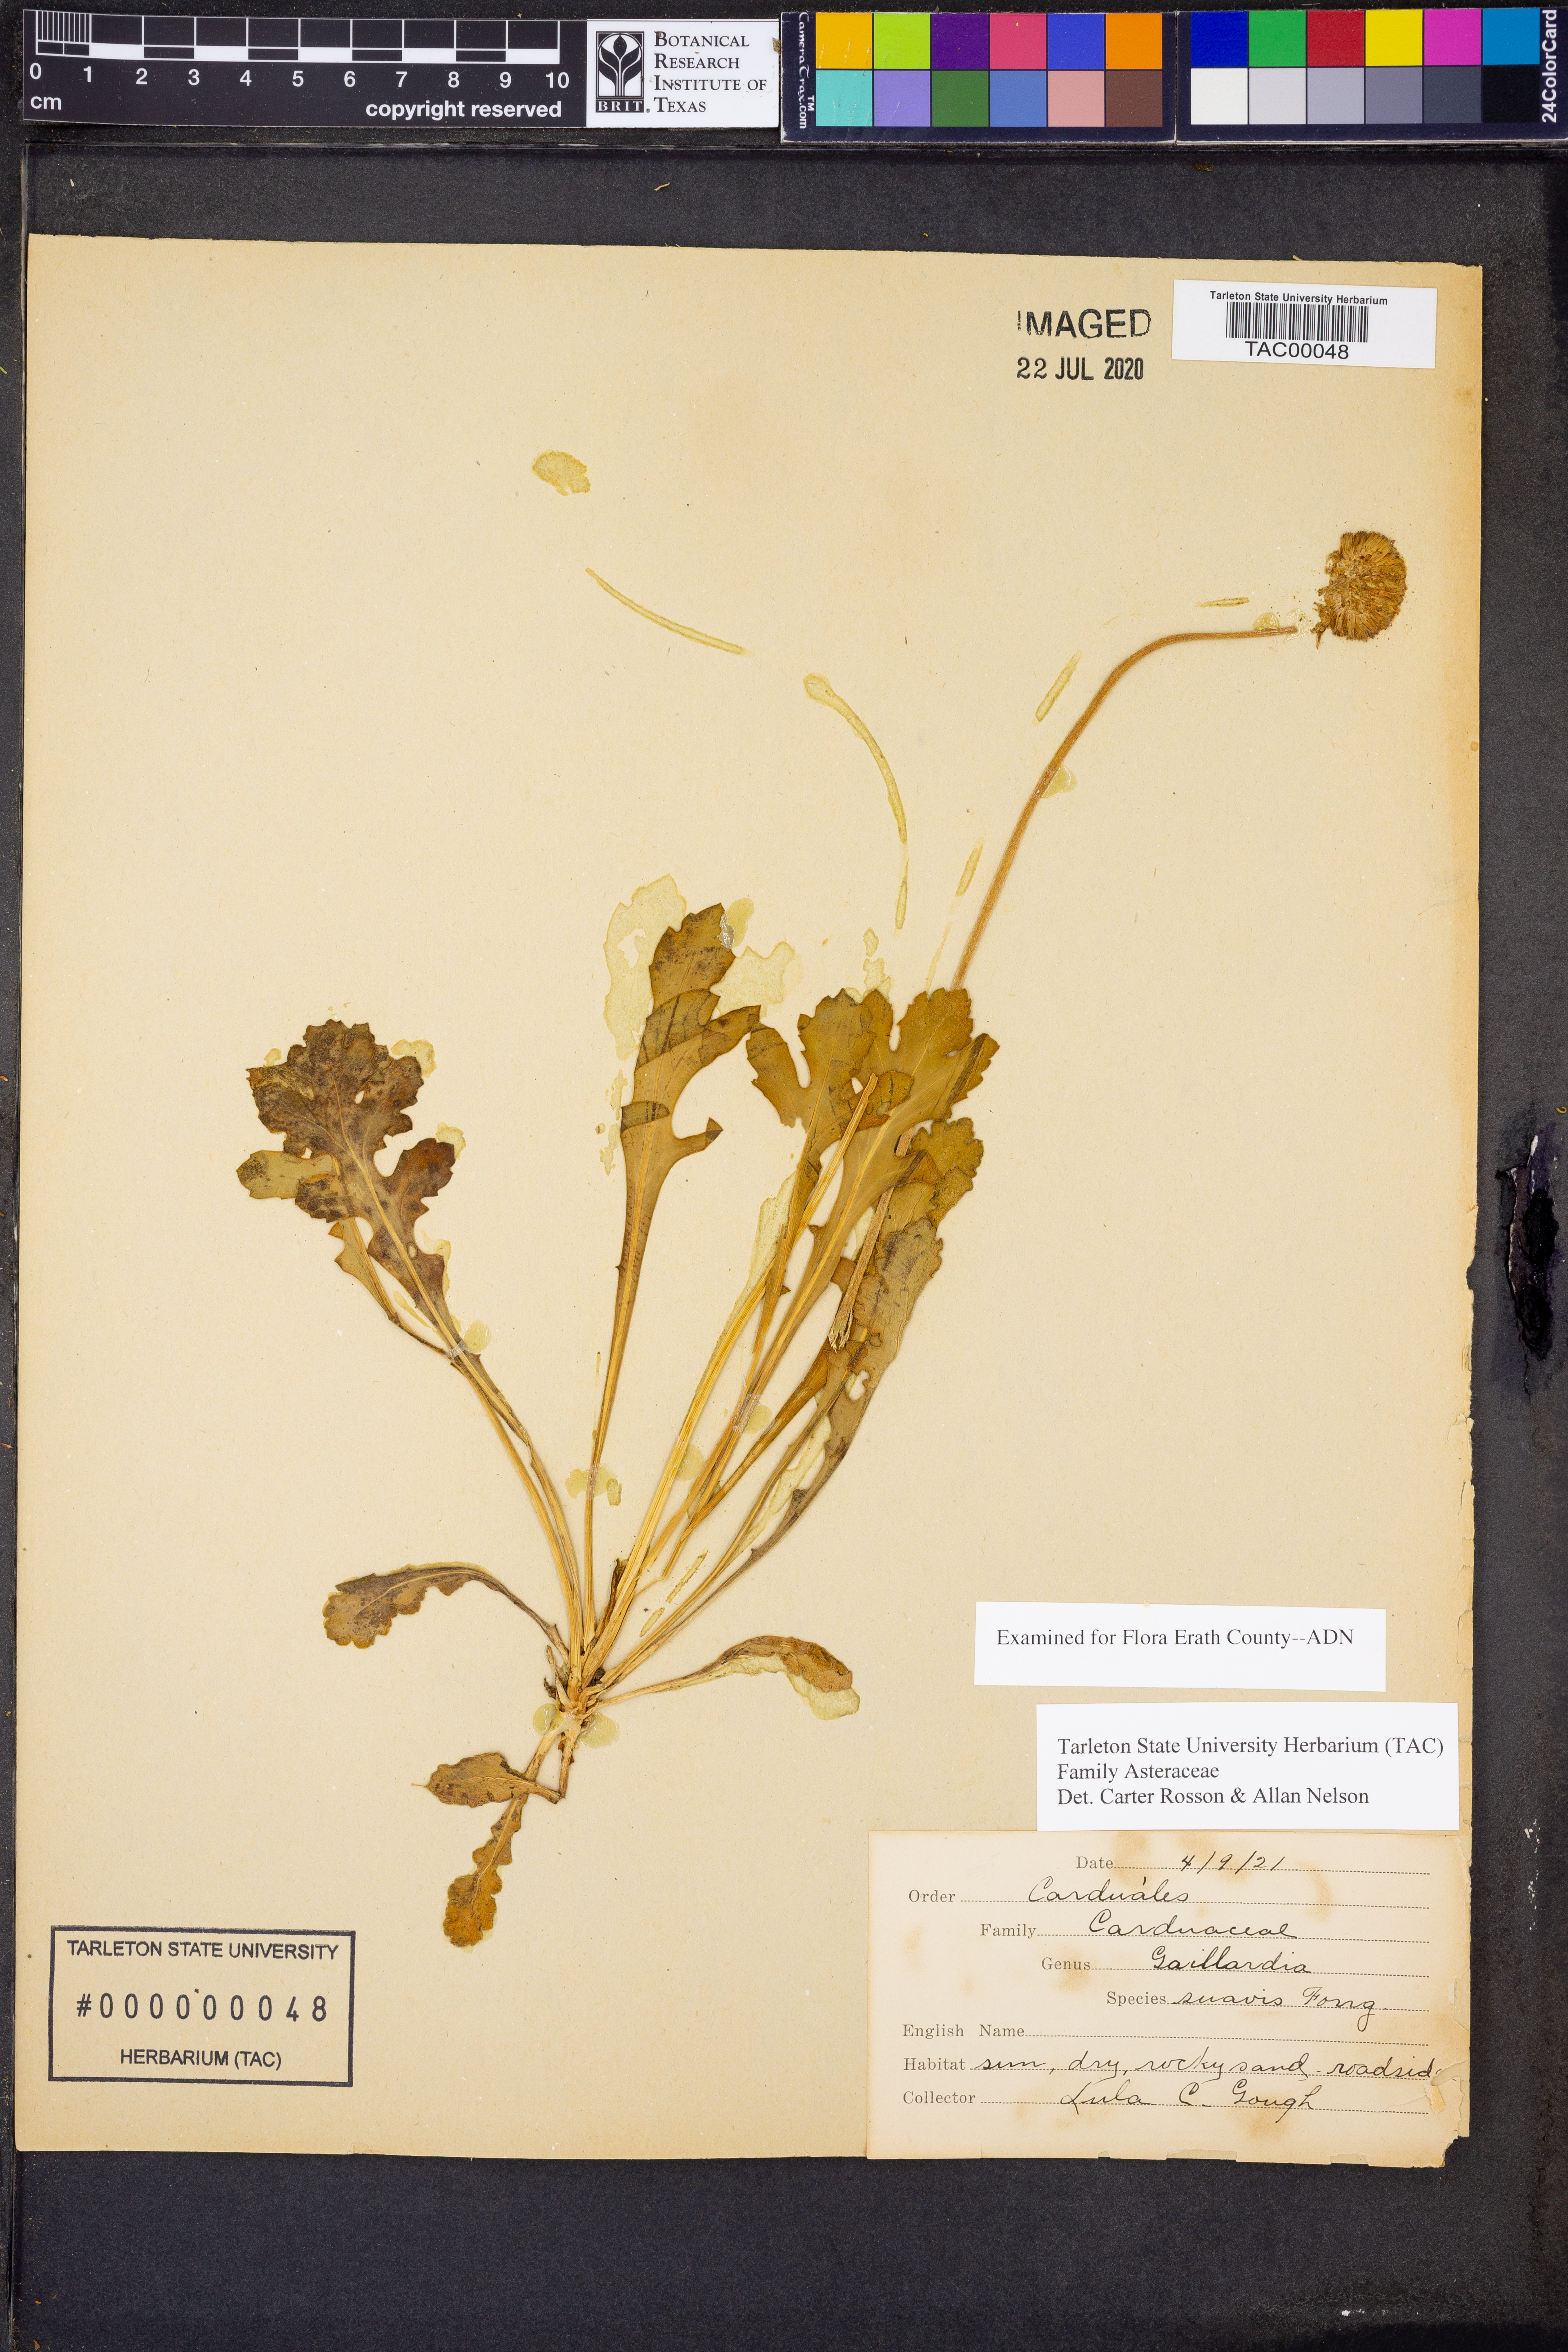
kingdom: Plantae
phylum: Tracheophyta
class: Magnoliopsida
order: Asterales
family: Asteraceae
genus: Gaillardia
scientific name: Gaillardia suavis
